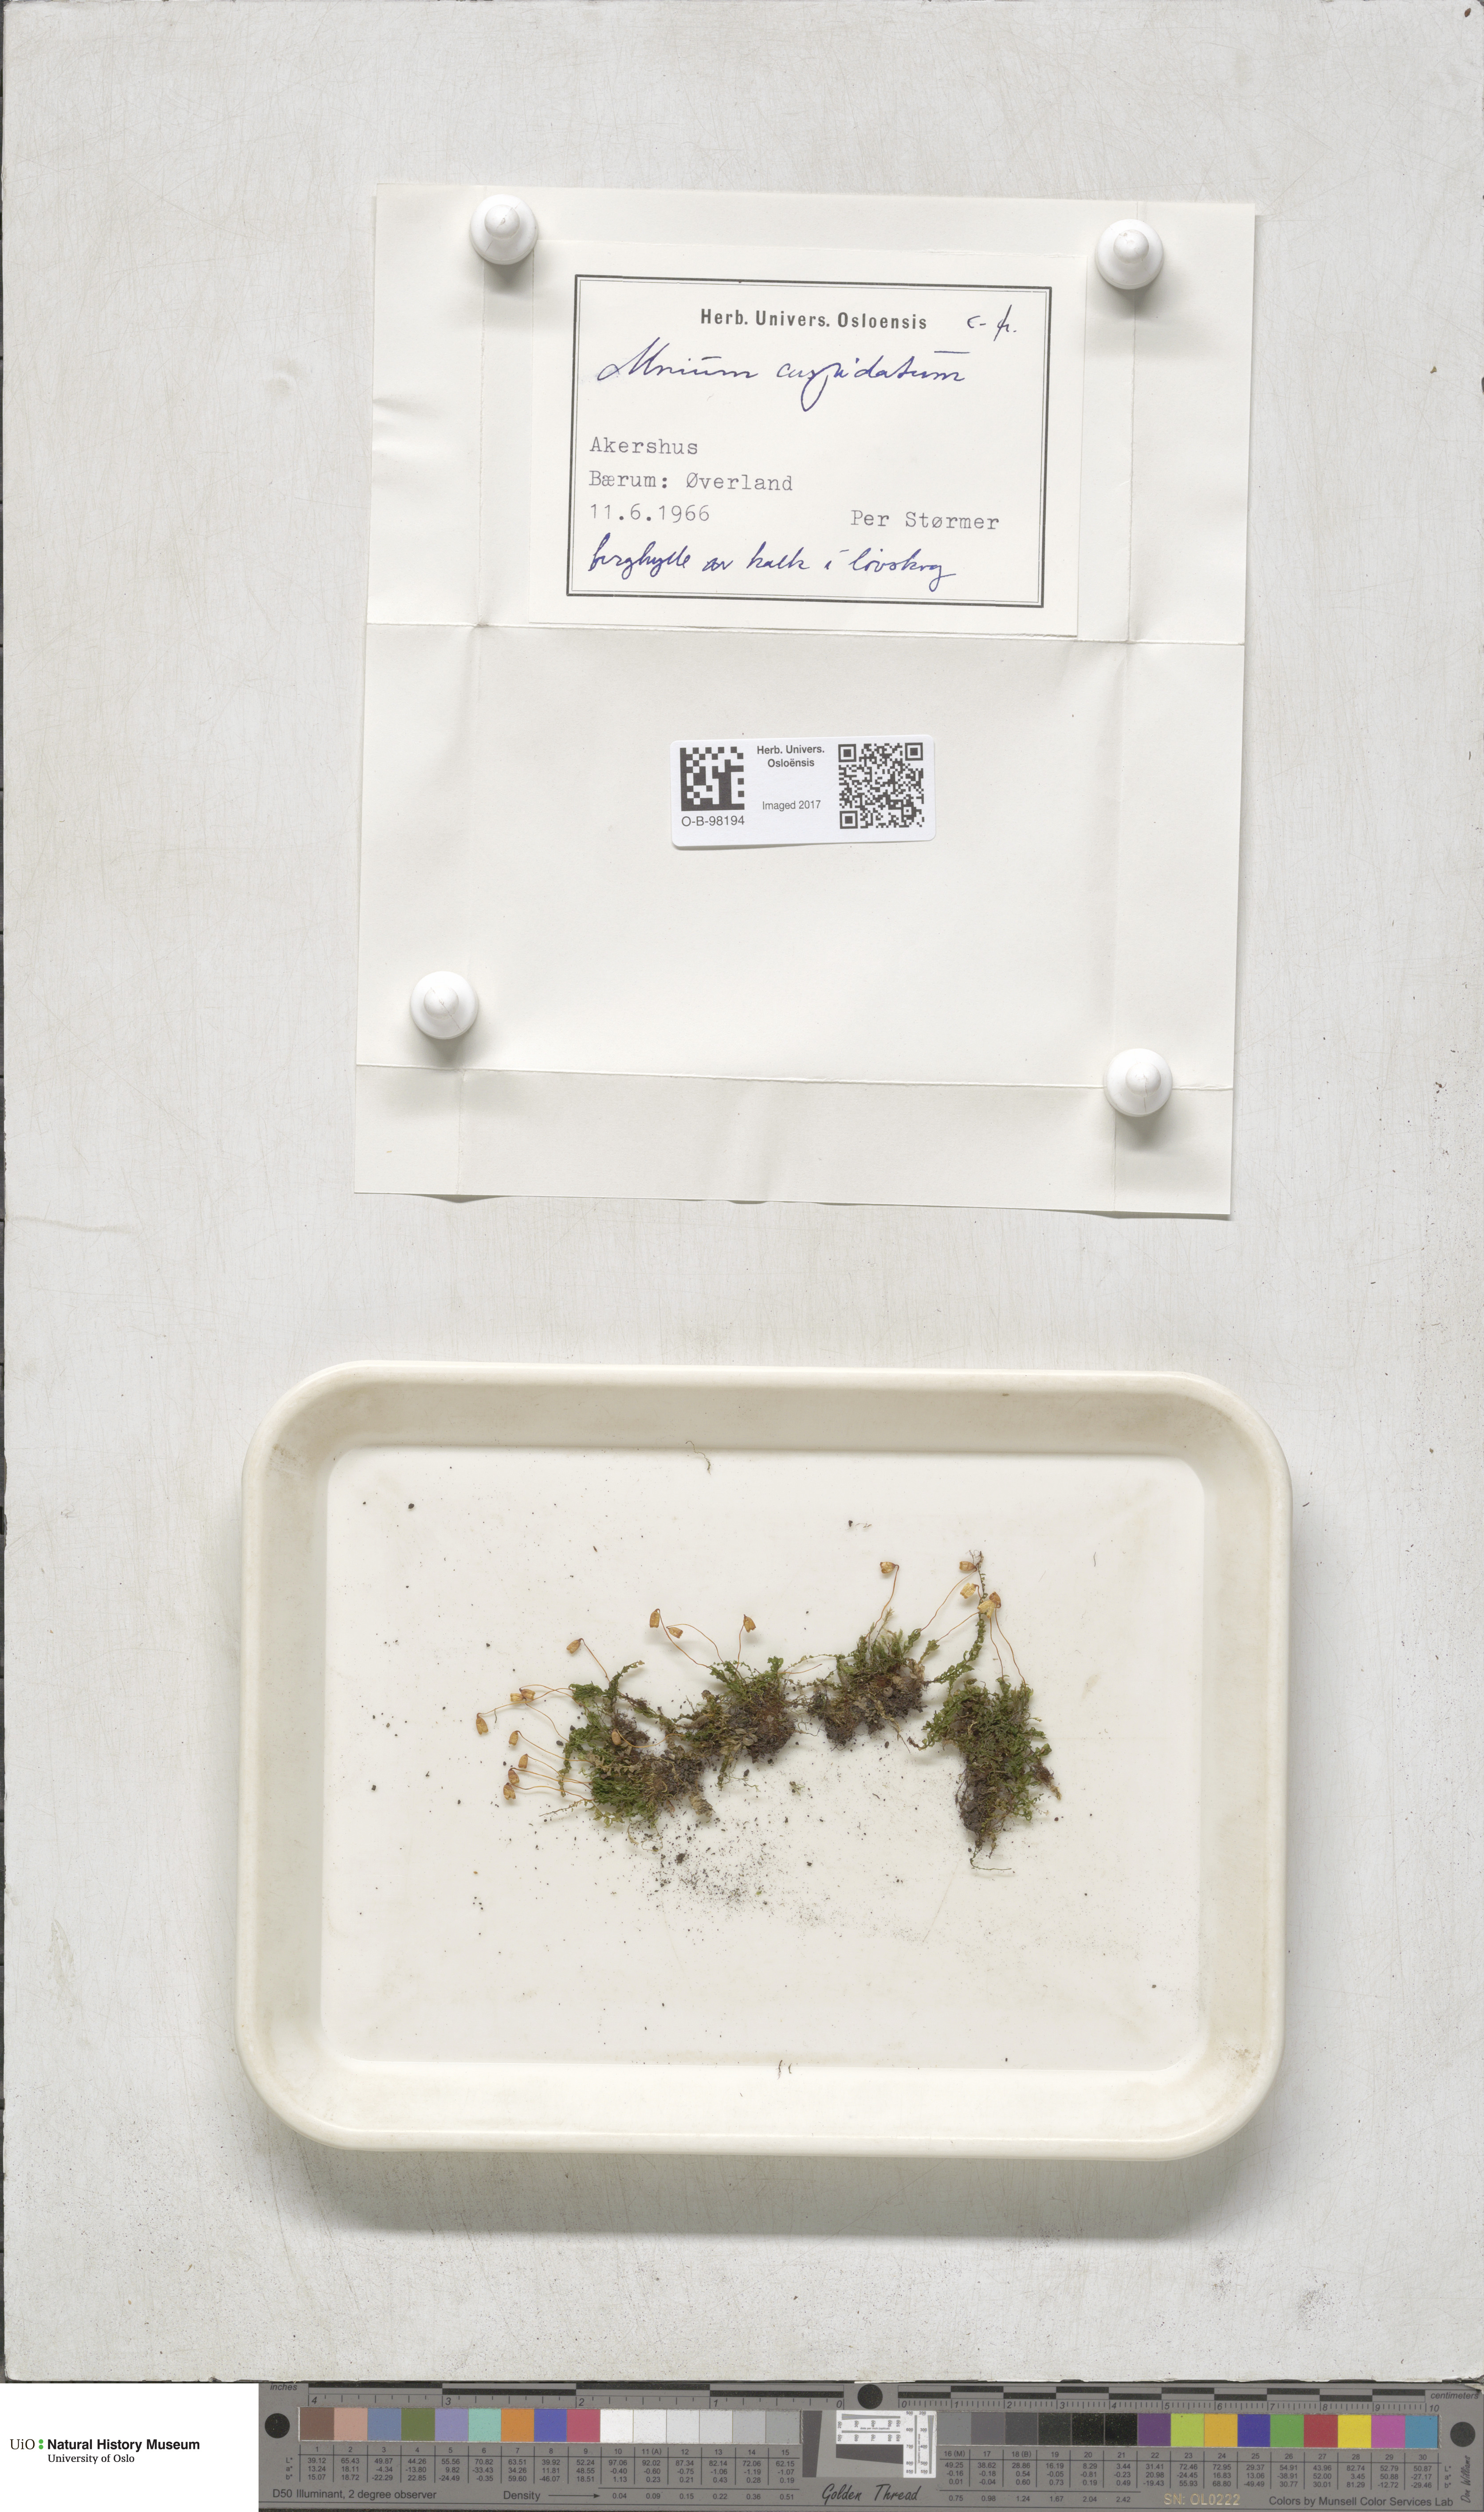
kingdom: Plantae
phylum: Bryophyta
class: Bryopsida
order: Bryales
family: Mniaceae
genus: Plagiomnium
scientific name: Plagiomnium affine
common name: Many-fruited thyme-moss
